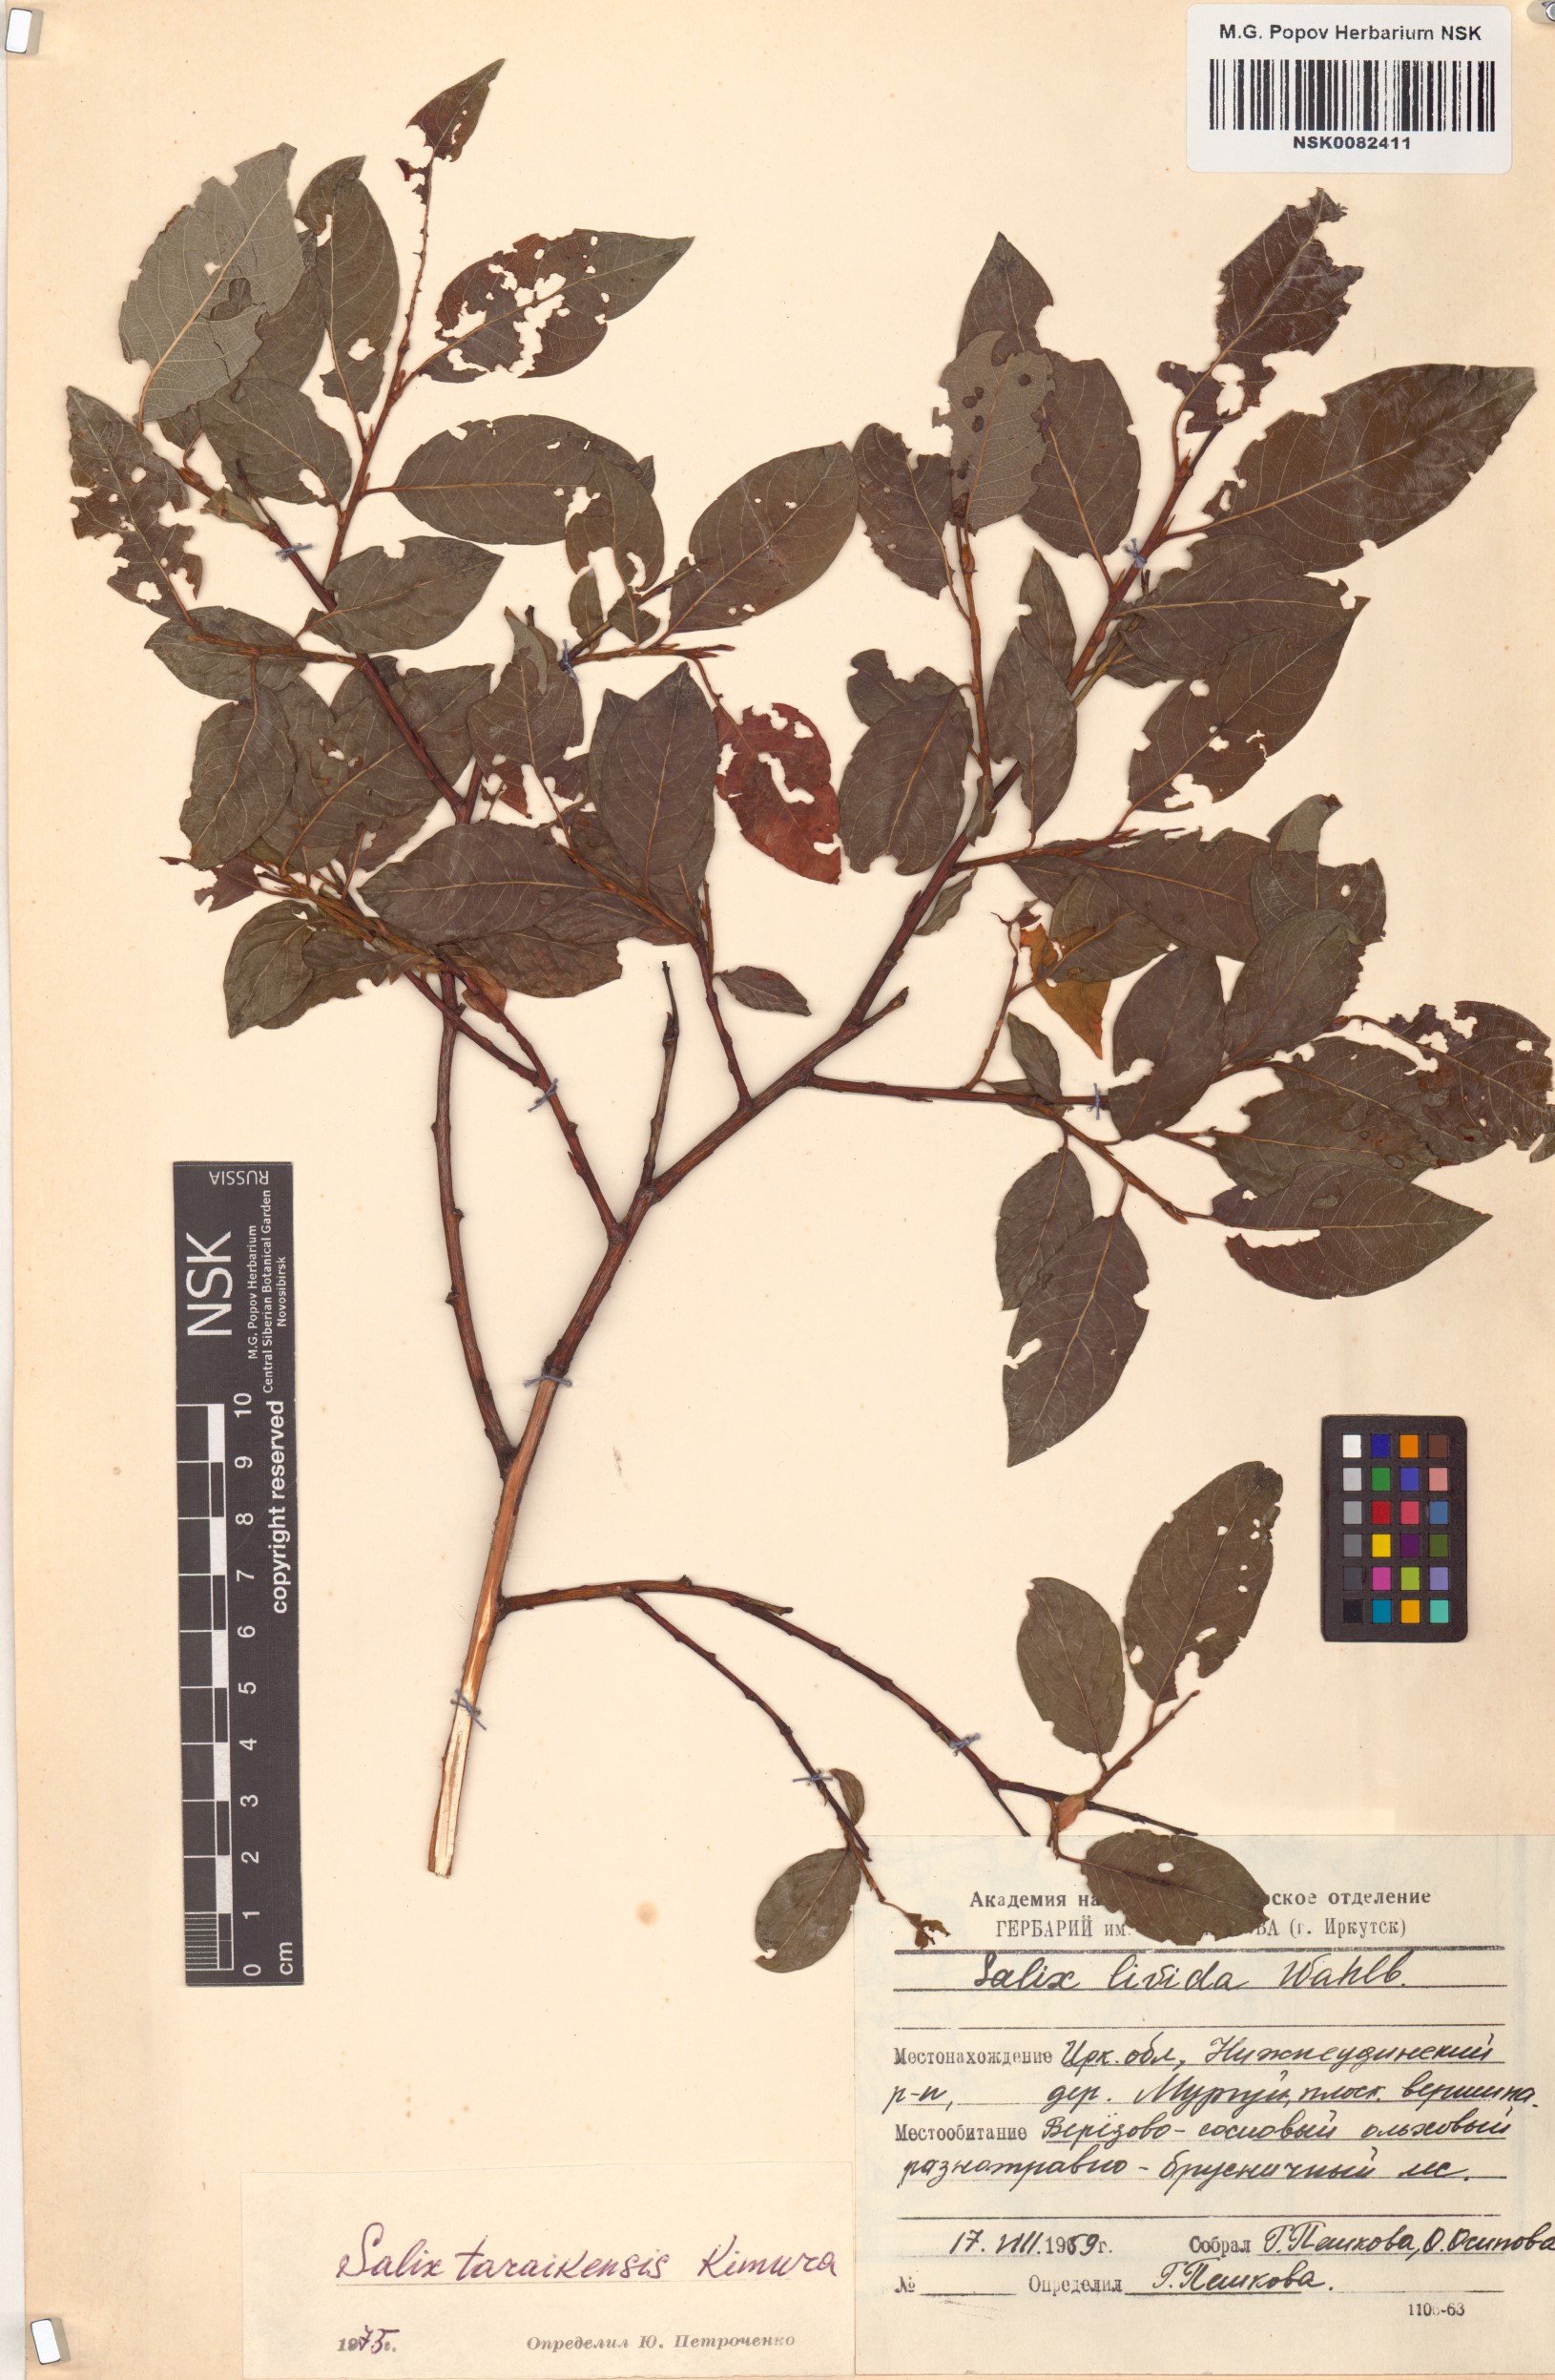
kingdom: Plantae
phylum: Tracheophyta
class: Magnoliopsida
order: Malpighiales
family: Salicaceae
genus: Salix
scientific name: Salix taraikensis
